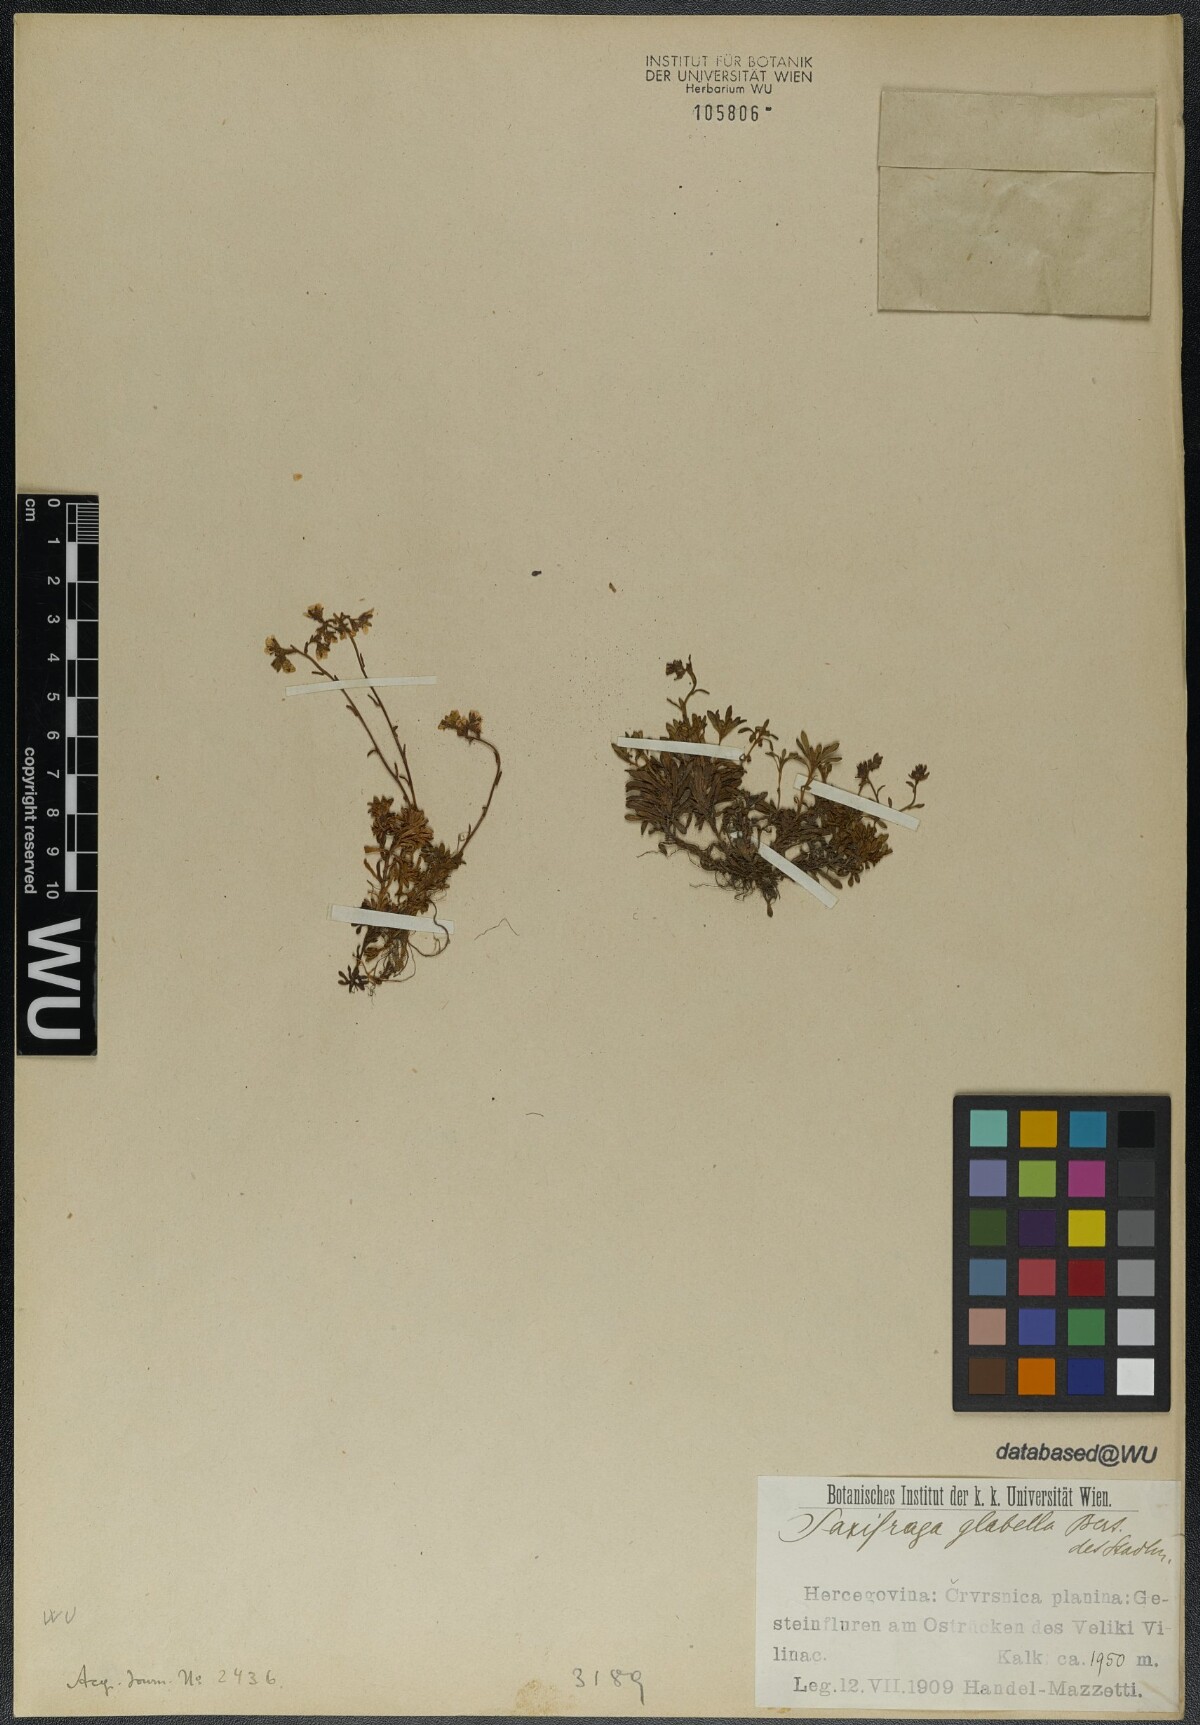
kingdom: Plantae
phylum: Tracheophyta
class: Magnoliopsida
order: Saxifragales
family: Saxifragaceae
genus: Saxifraga
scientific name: Saxifraga glabella
